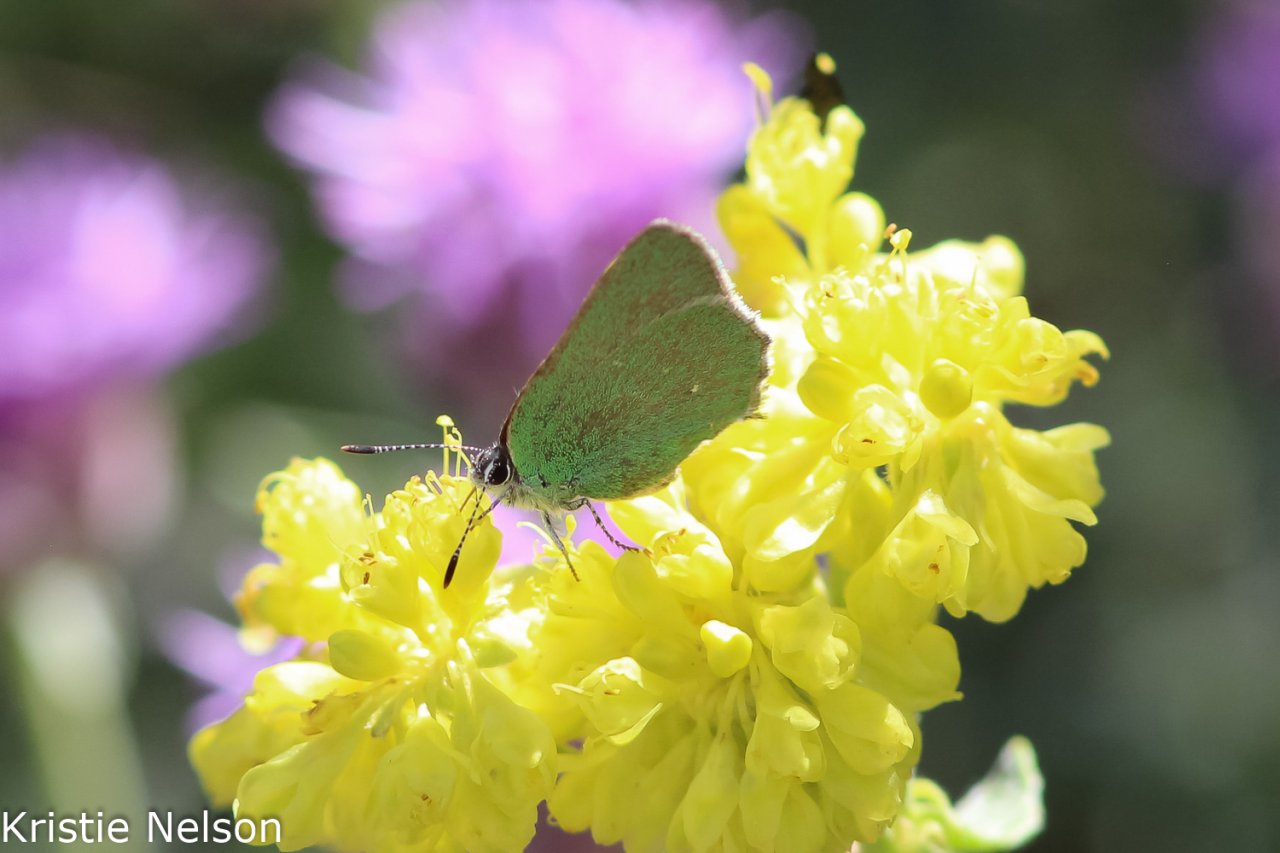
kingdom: Animalia
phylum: Arthropoda
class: Insecta
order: Lepidoptera
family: Lycaenidae
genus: Thecla
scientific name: Thecla sheridanii
